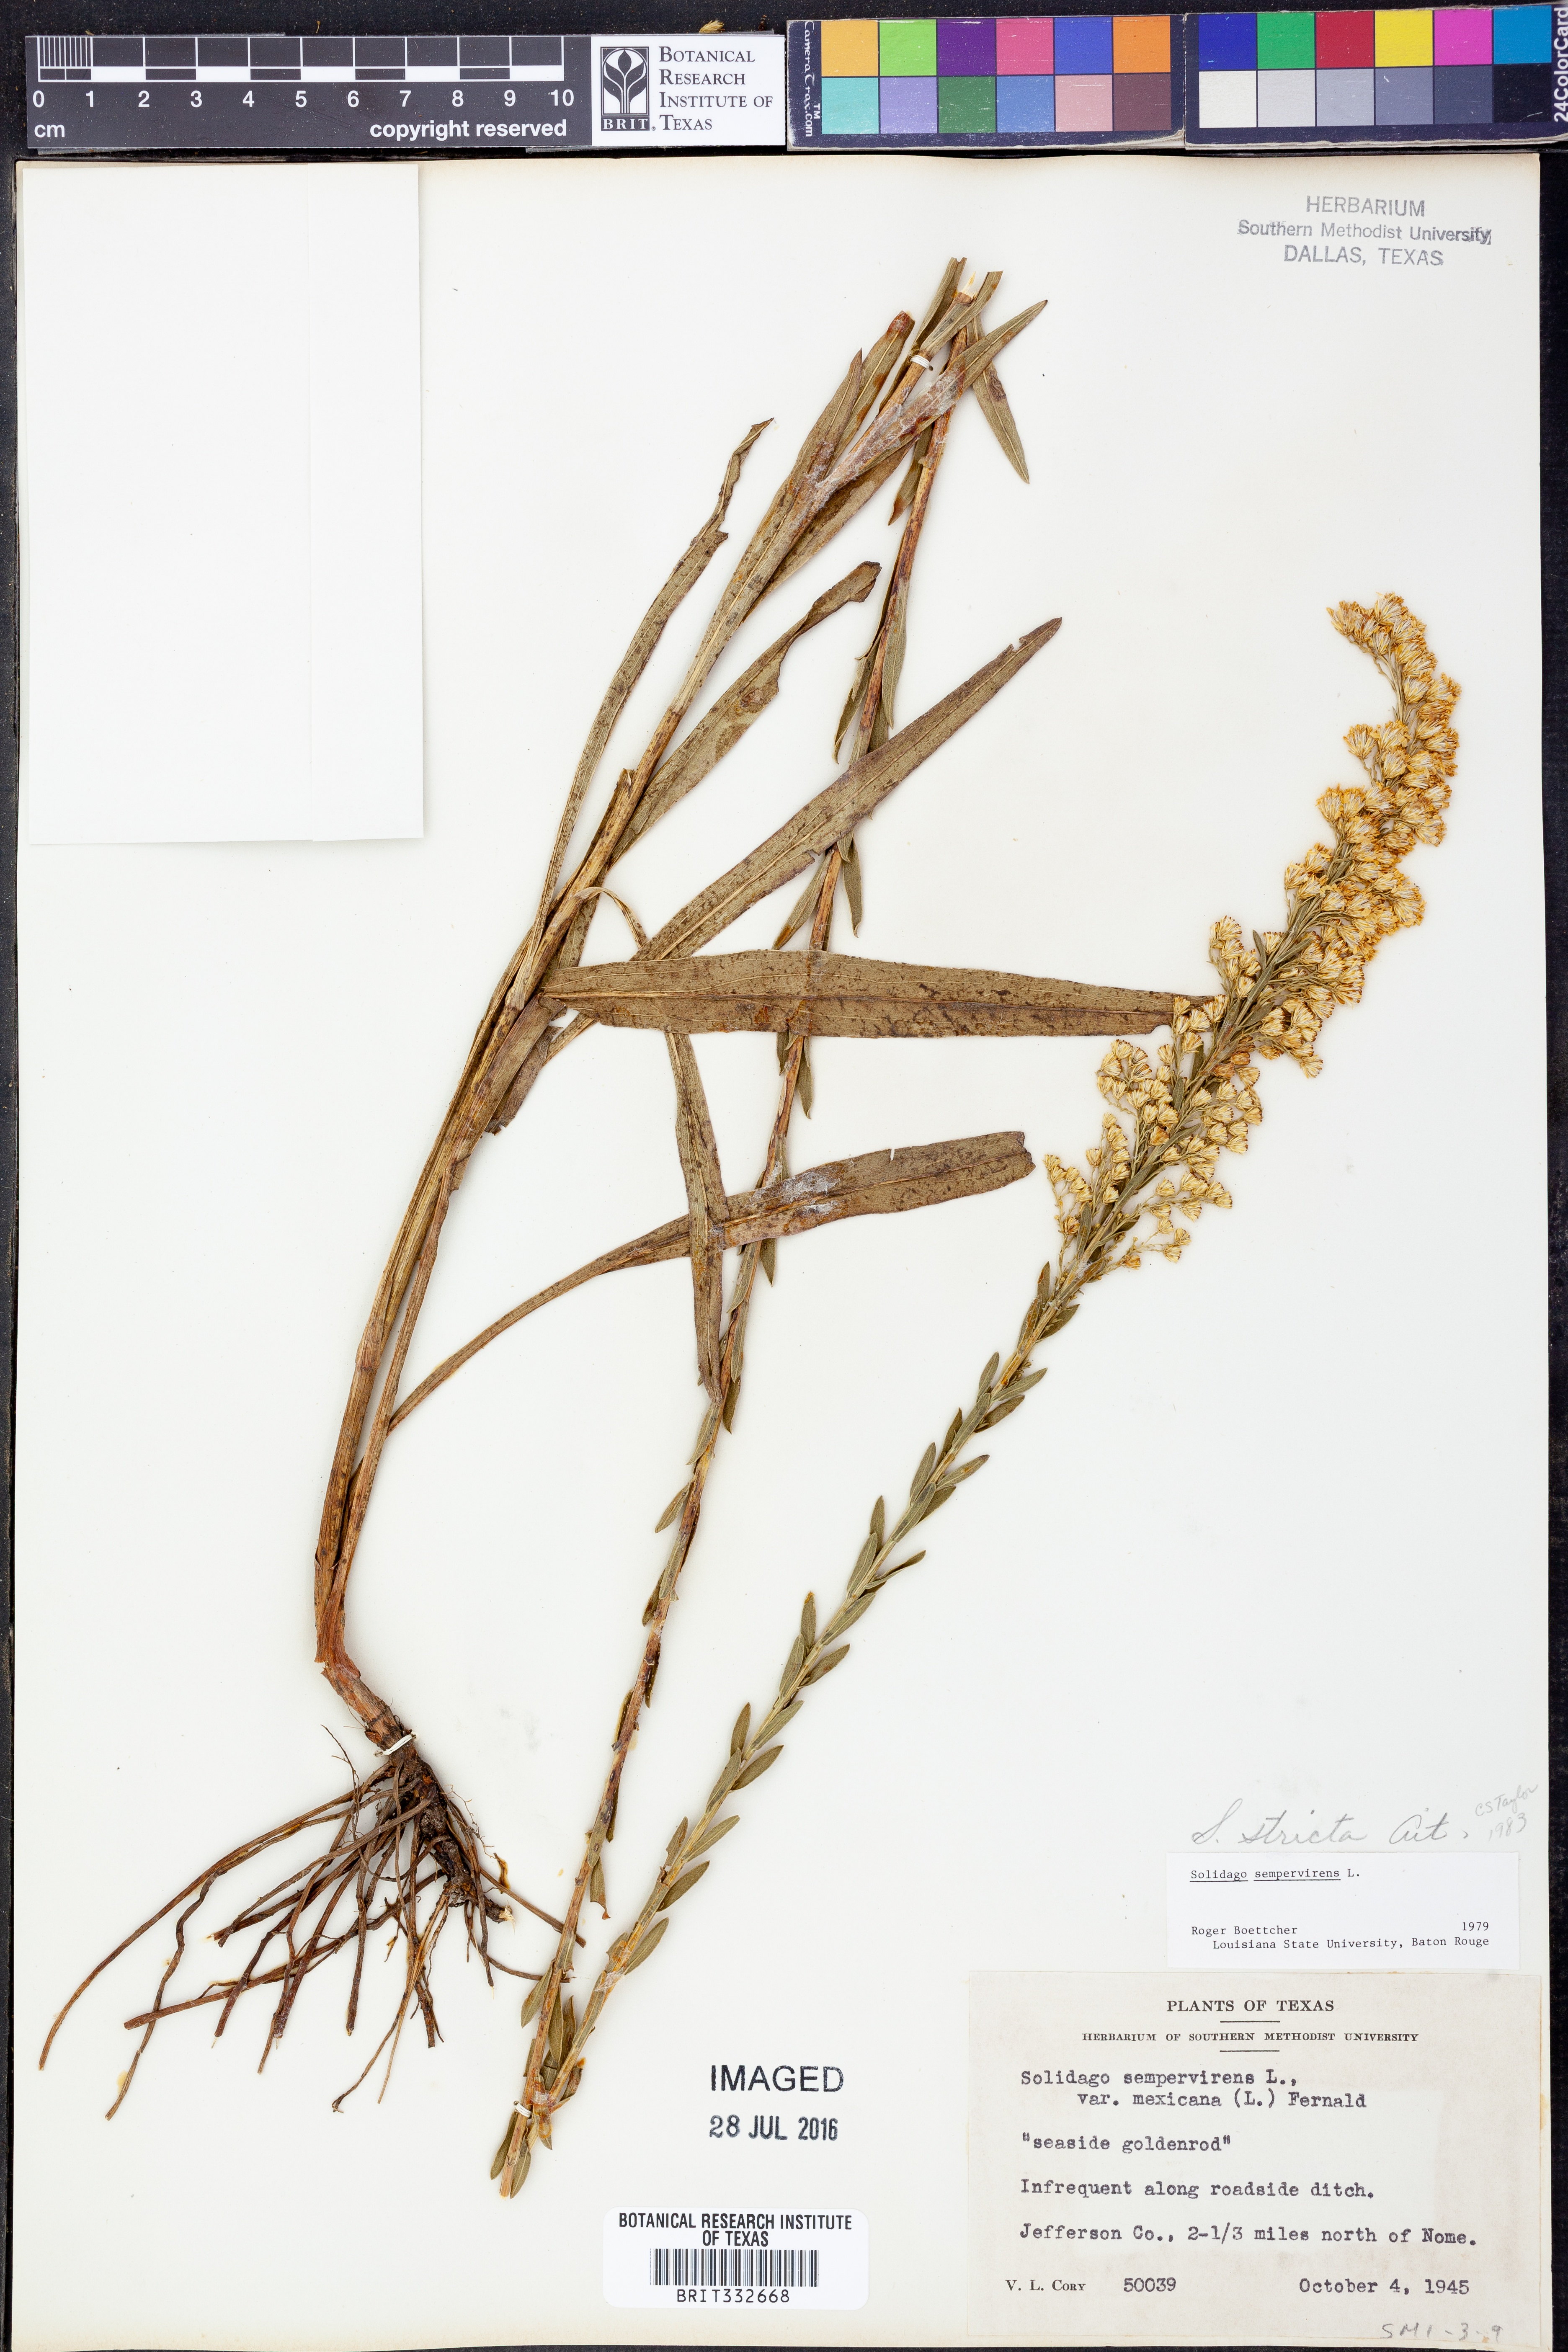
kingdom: Plantae
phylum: Tracheophyta
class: Magnoliopsida
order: Asterales
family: Asteraceae
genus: Solidago
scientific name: Solidago stricta
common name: Pine barren bog goldenrod
